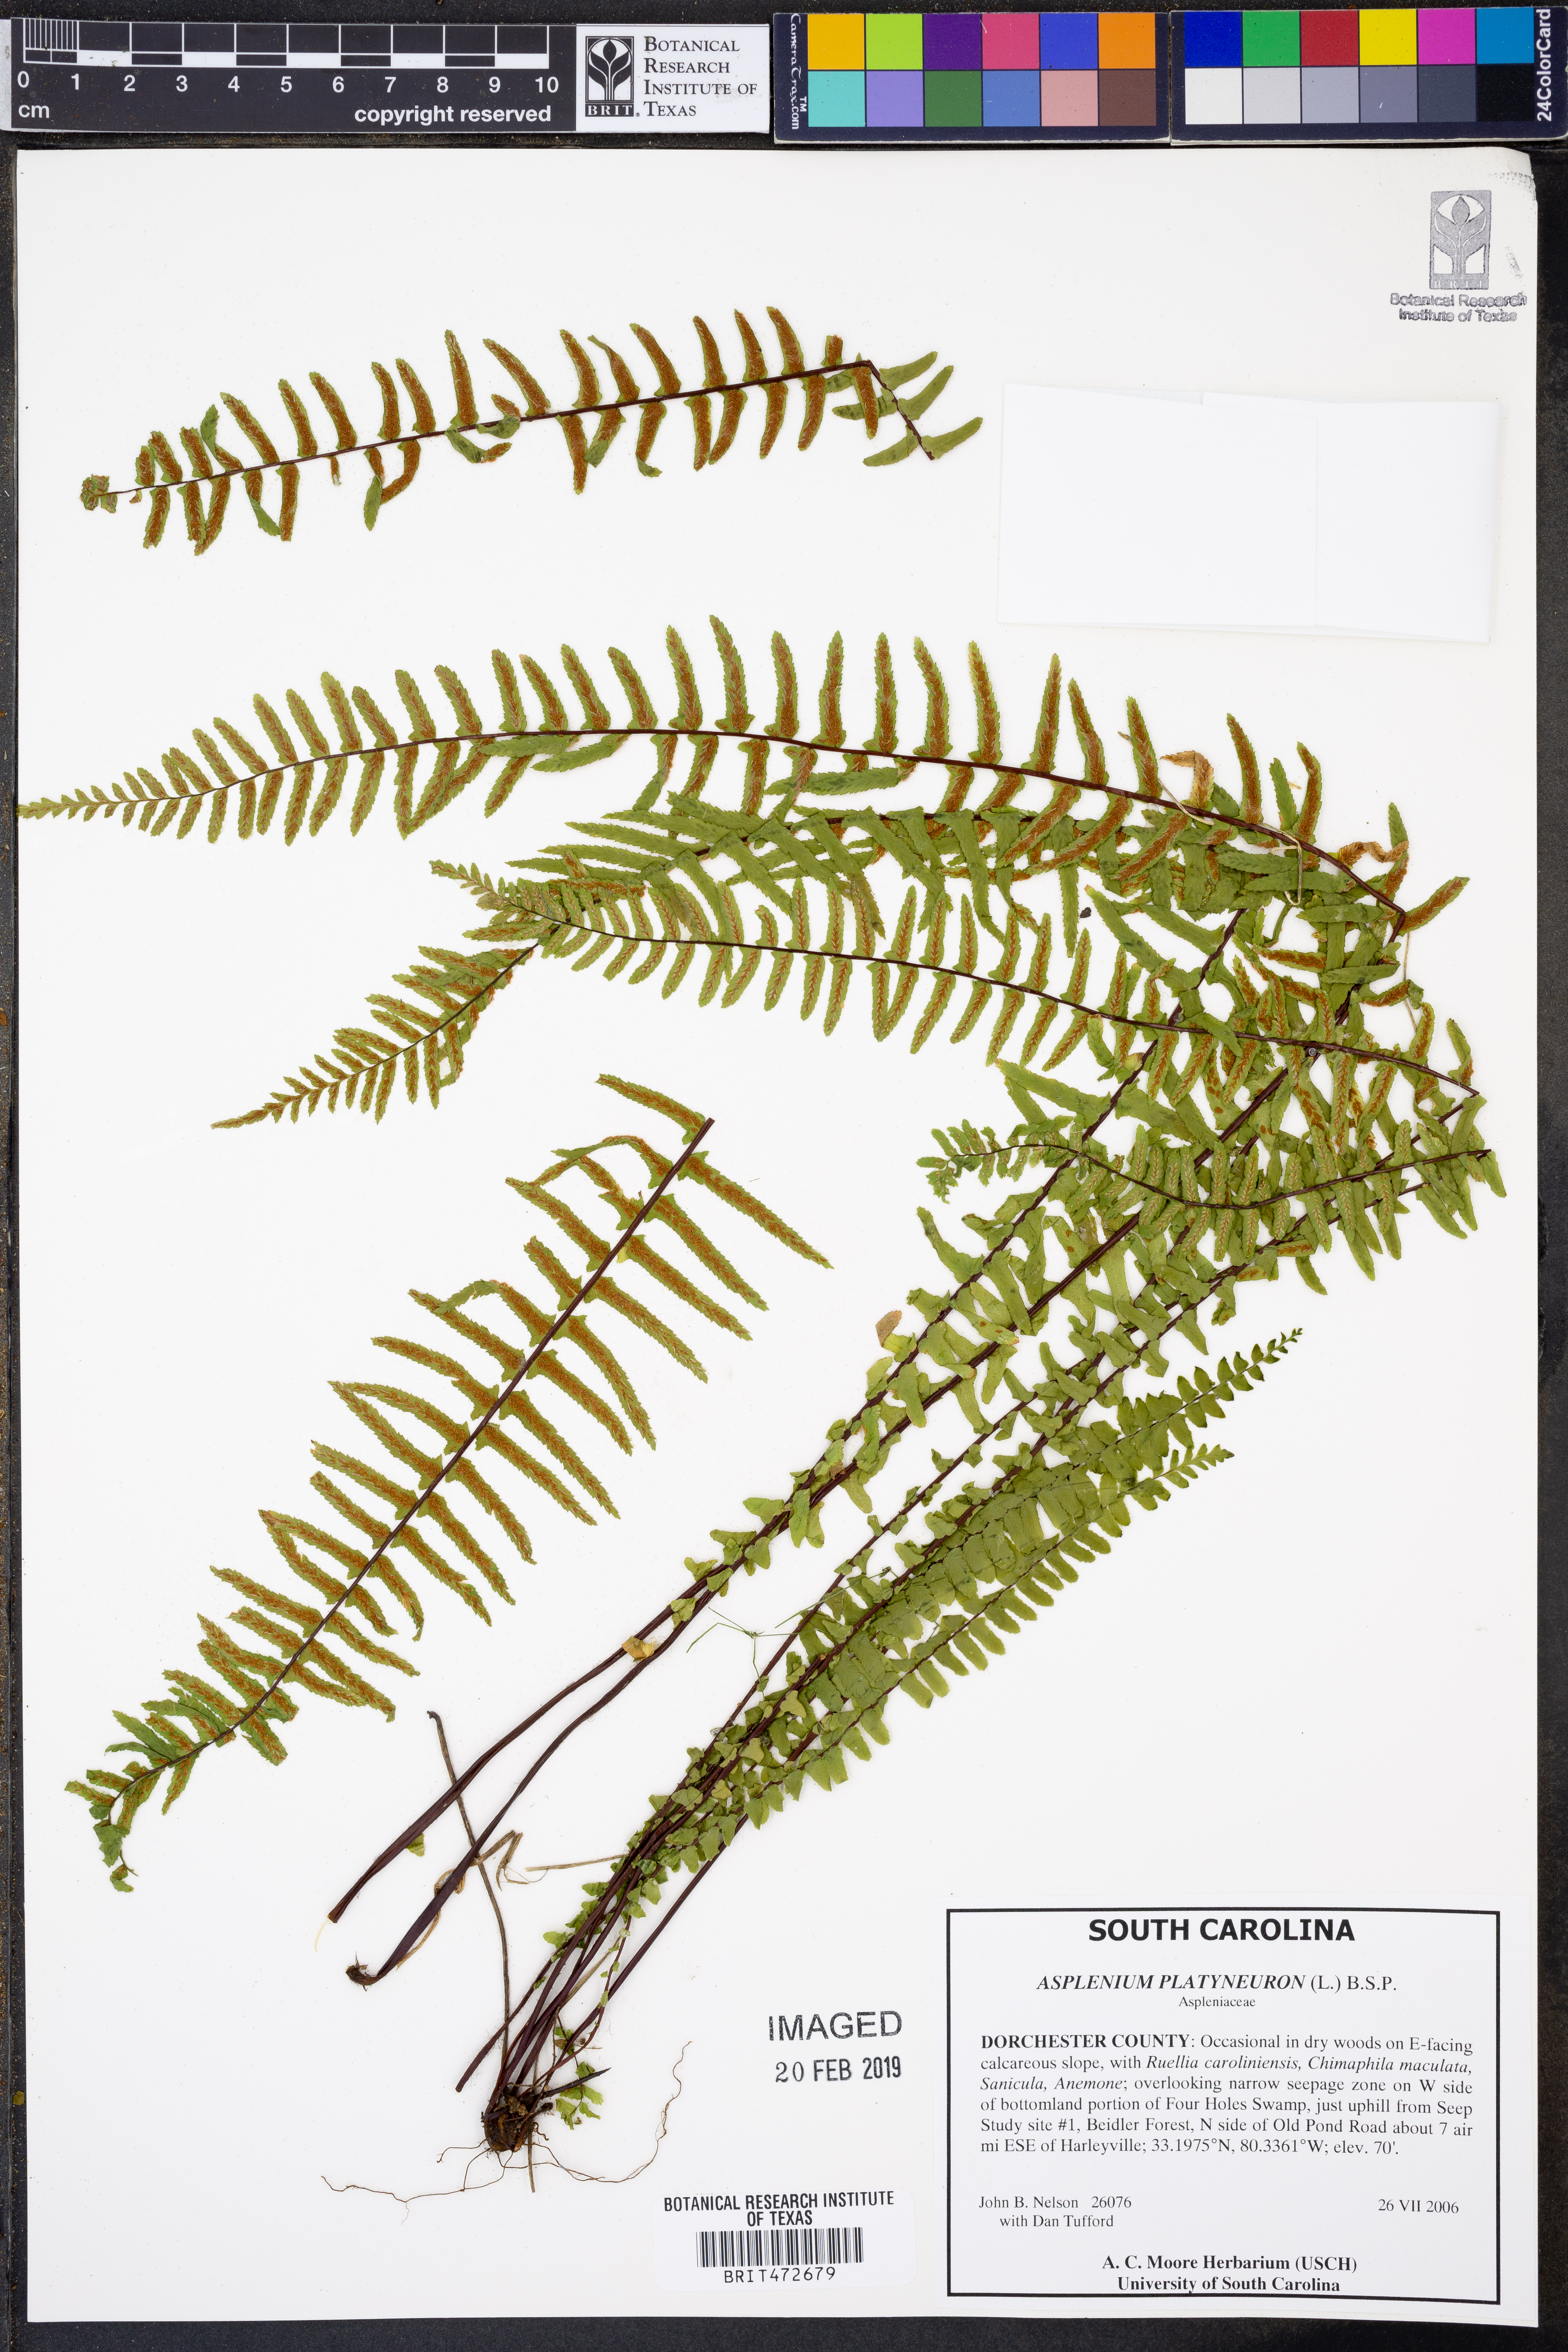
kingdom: Plantae
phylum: Tracheophyta
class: Polypodiopsida
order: Polypodiales
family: Aspleniaceae
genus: Asplenium
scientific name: Asplenium platyneuron
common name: Ebony spleenwort
